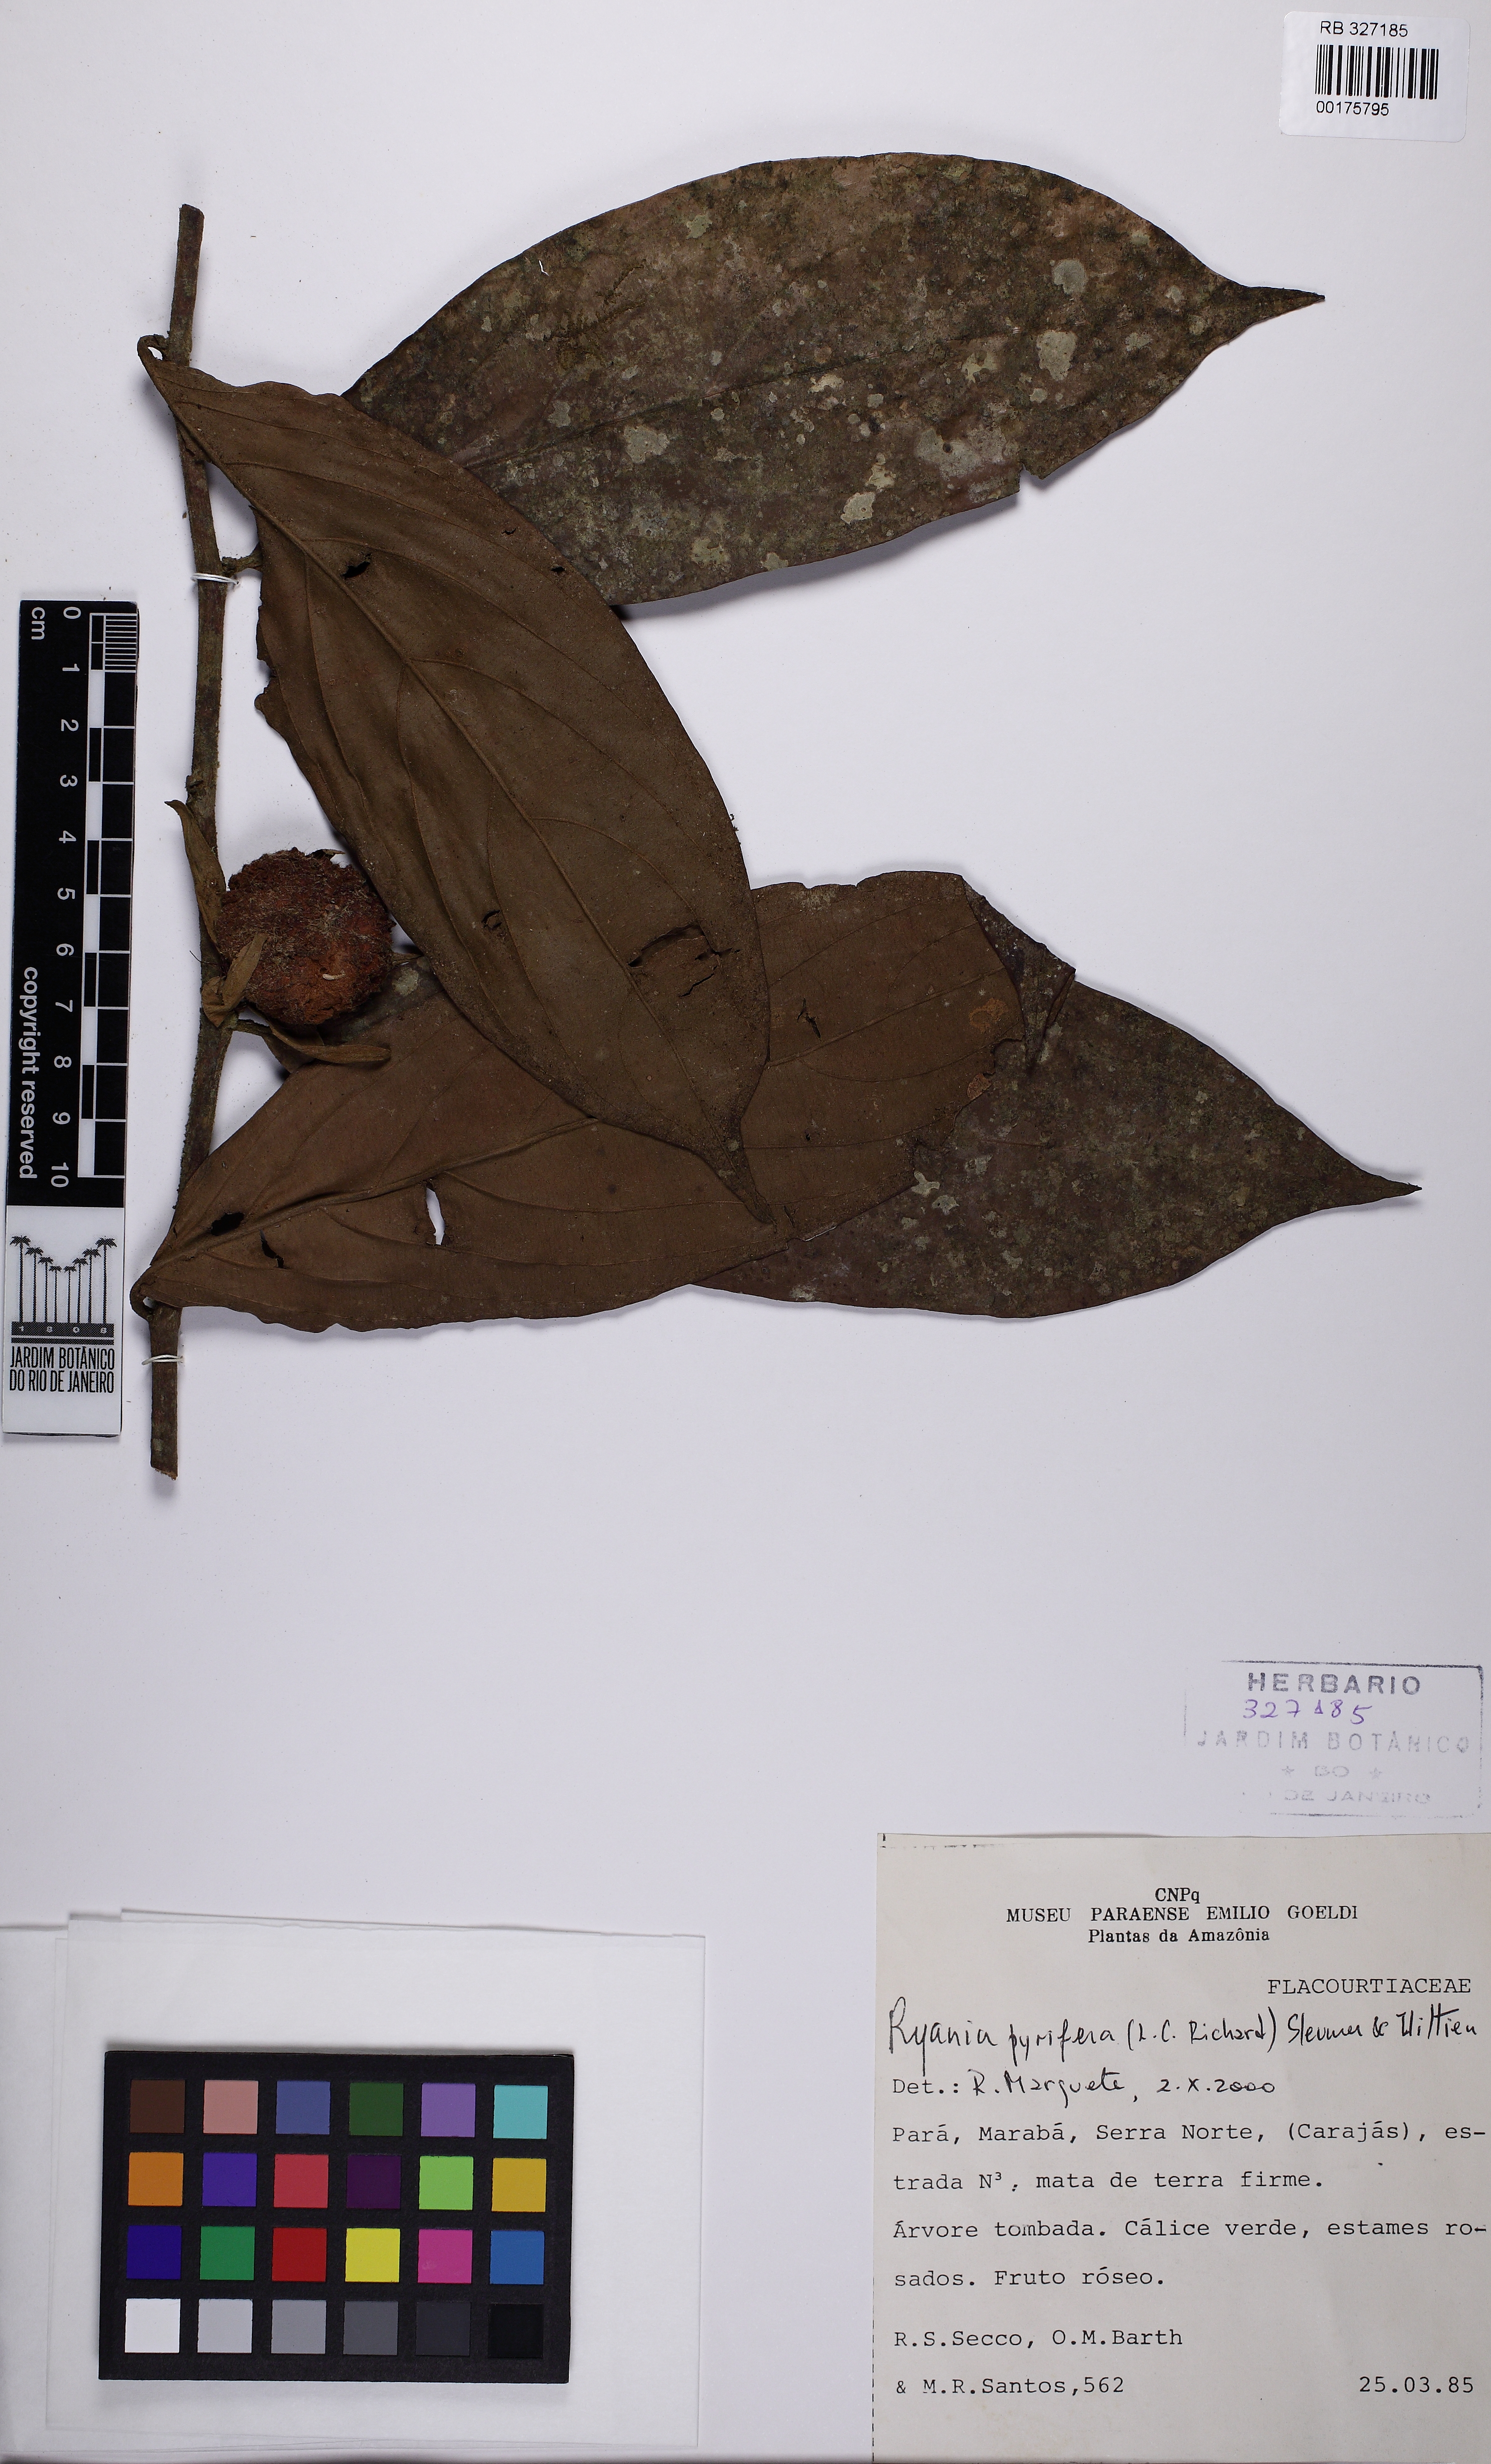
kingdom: Plantae
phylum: Tracheophyta
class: Magnoliopsida
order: Malpighiales
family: Salicaceae
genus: Ryania
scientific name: Ryania pyrifera
